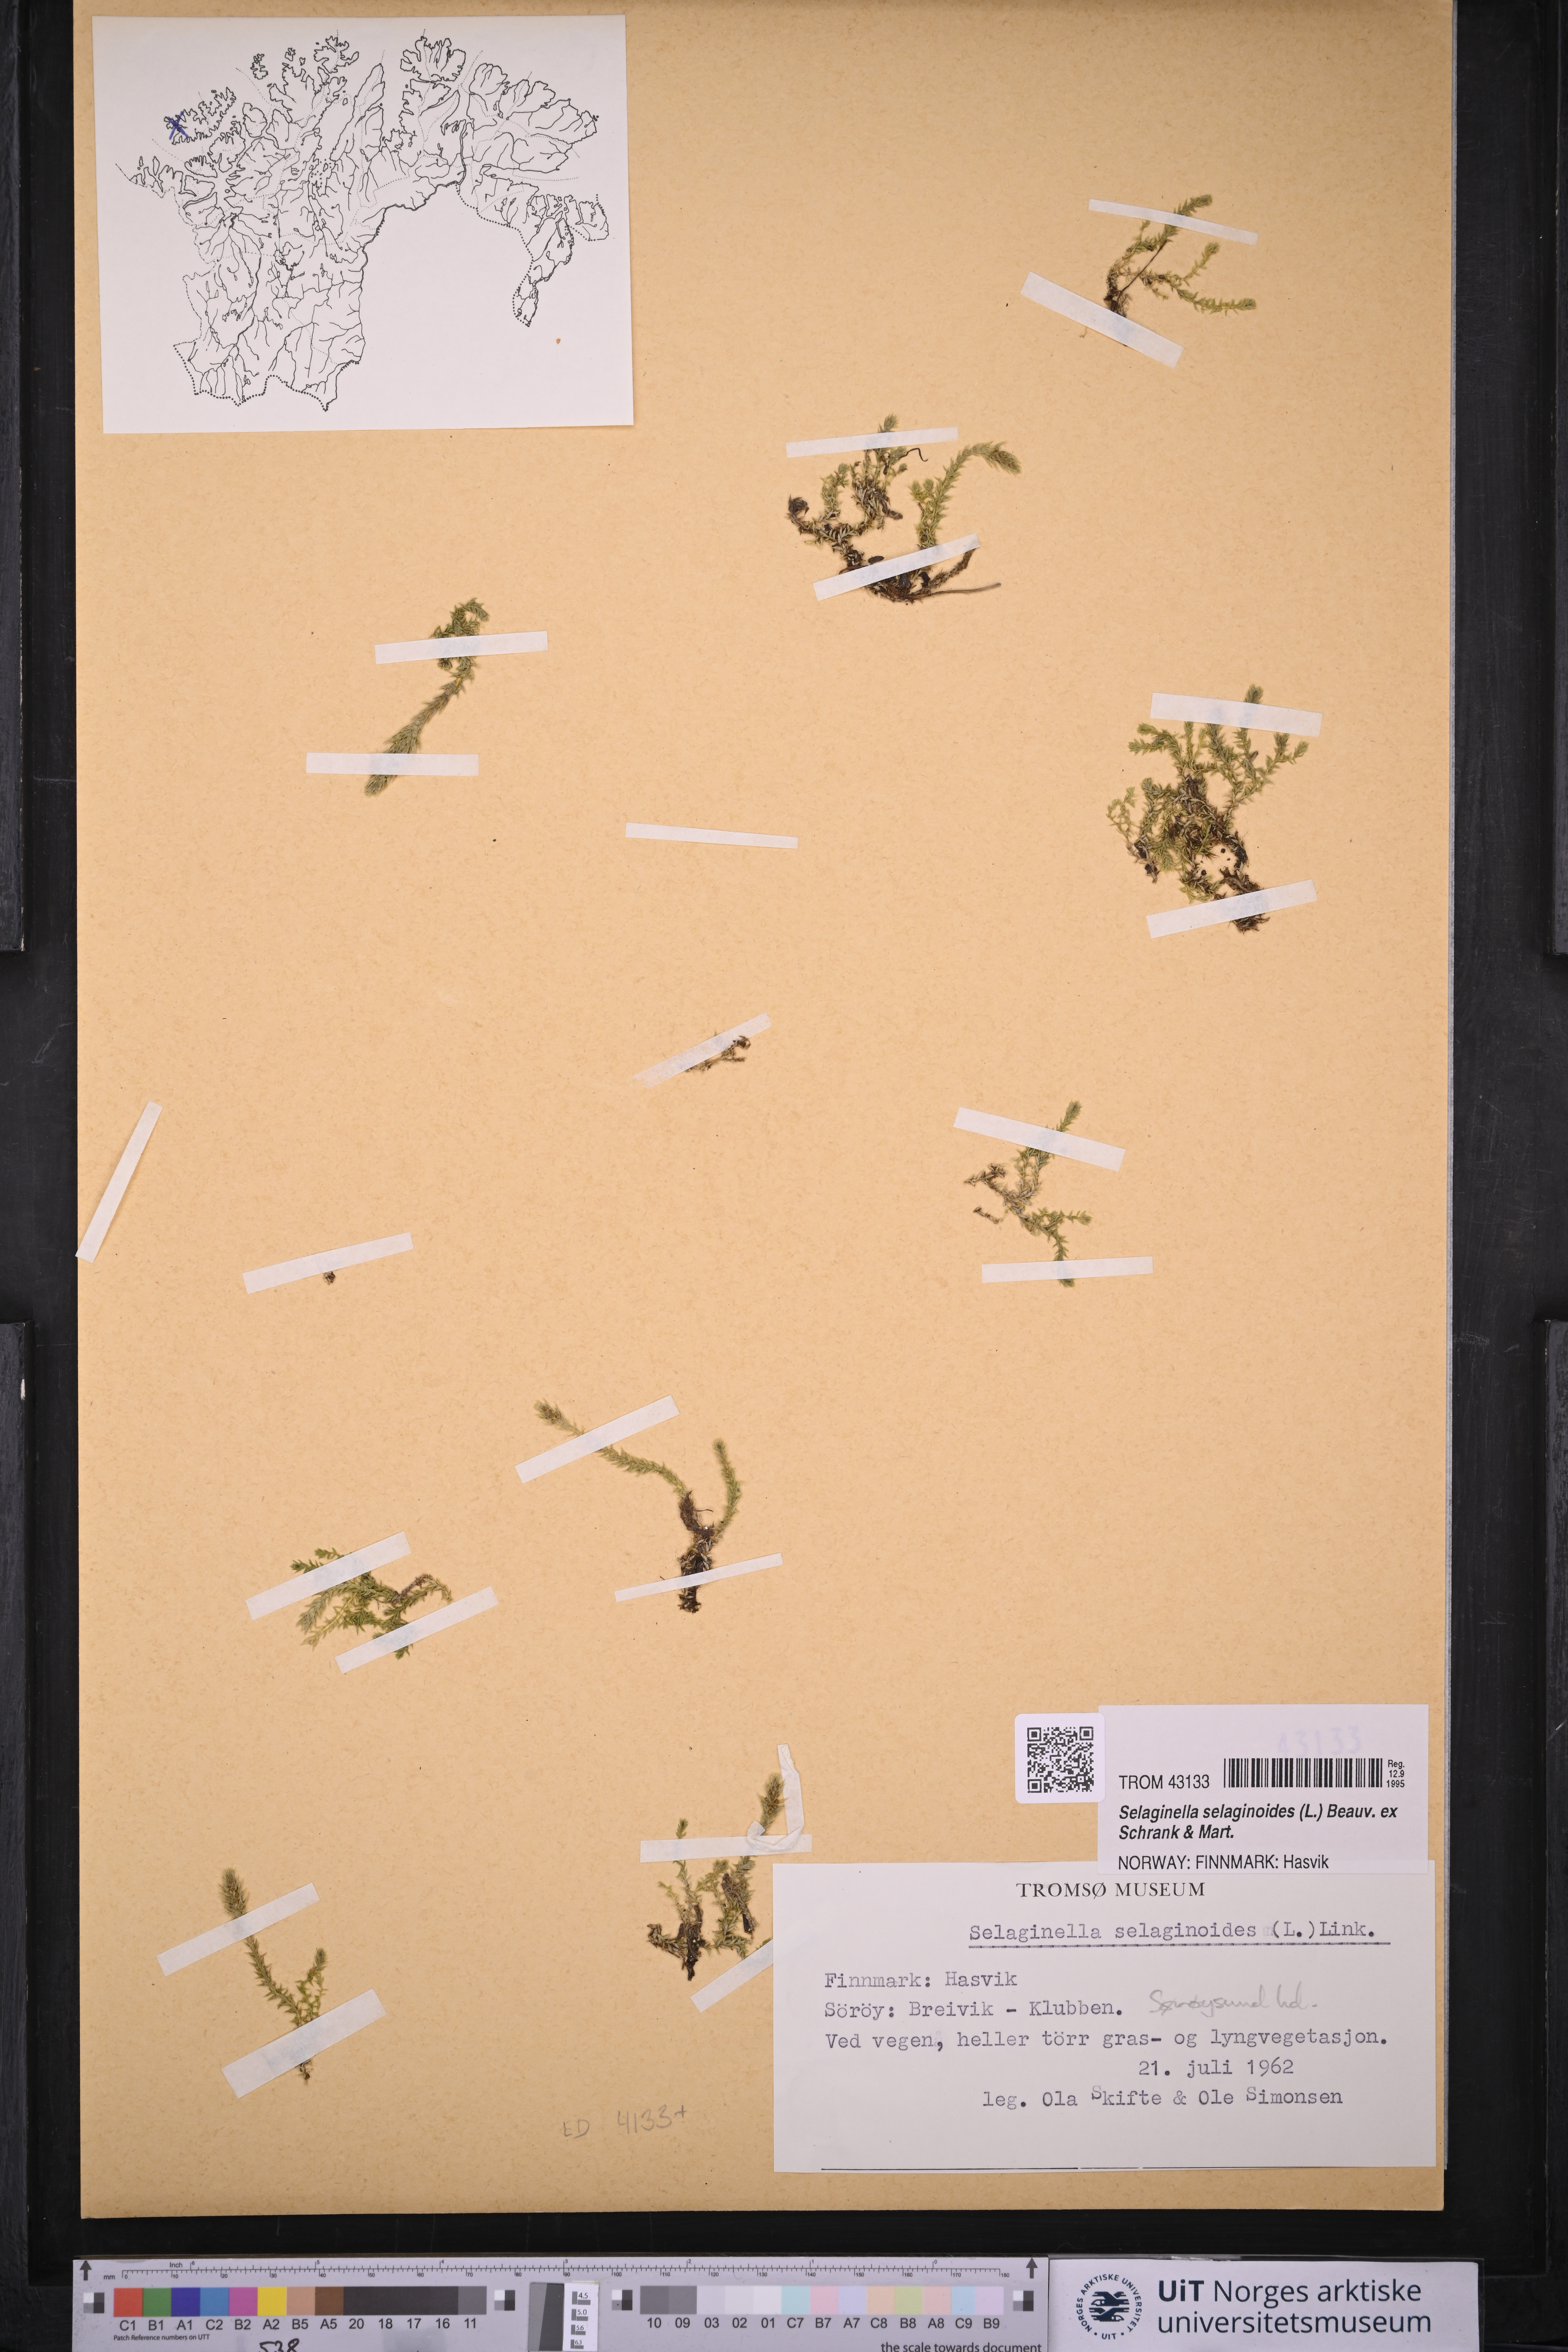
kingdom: Plantae
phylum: Tracheophyta
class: Lycopodiopsida
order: Selaginellales
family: Selaginellaceae
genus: Selaginella
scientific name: Selaginella selaginoides
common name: Prickly mountain-moss
